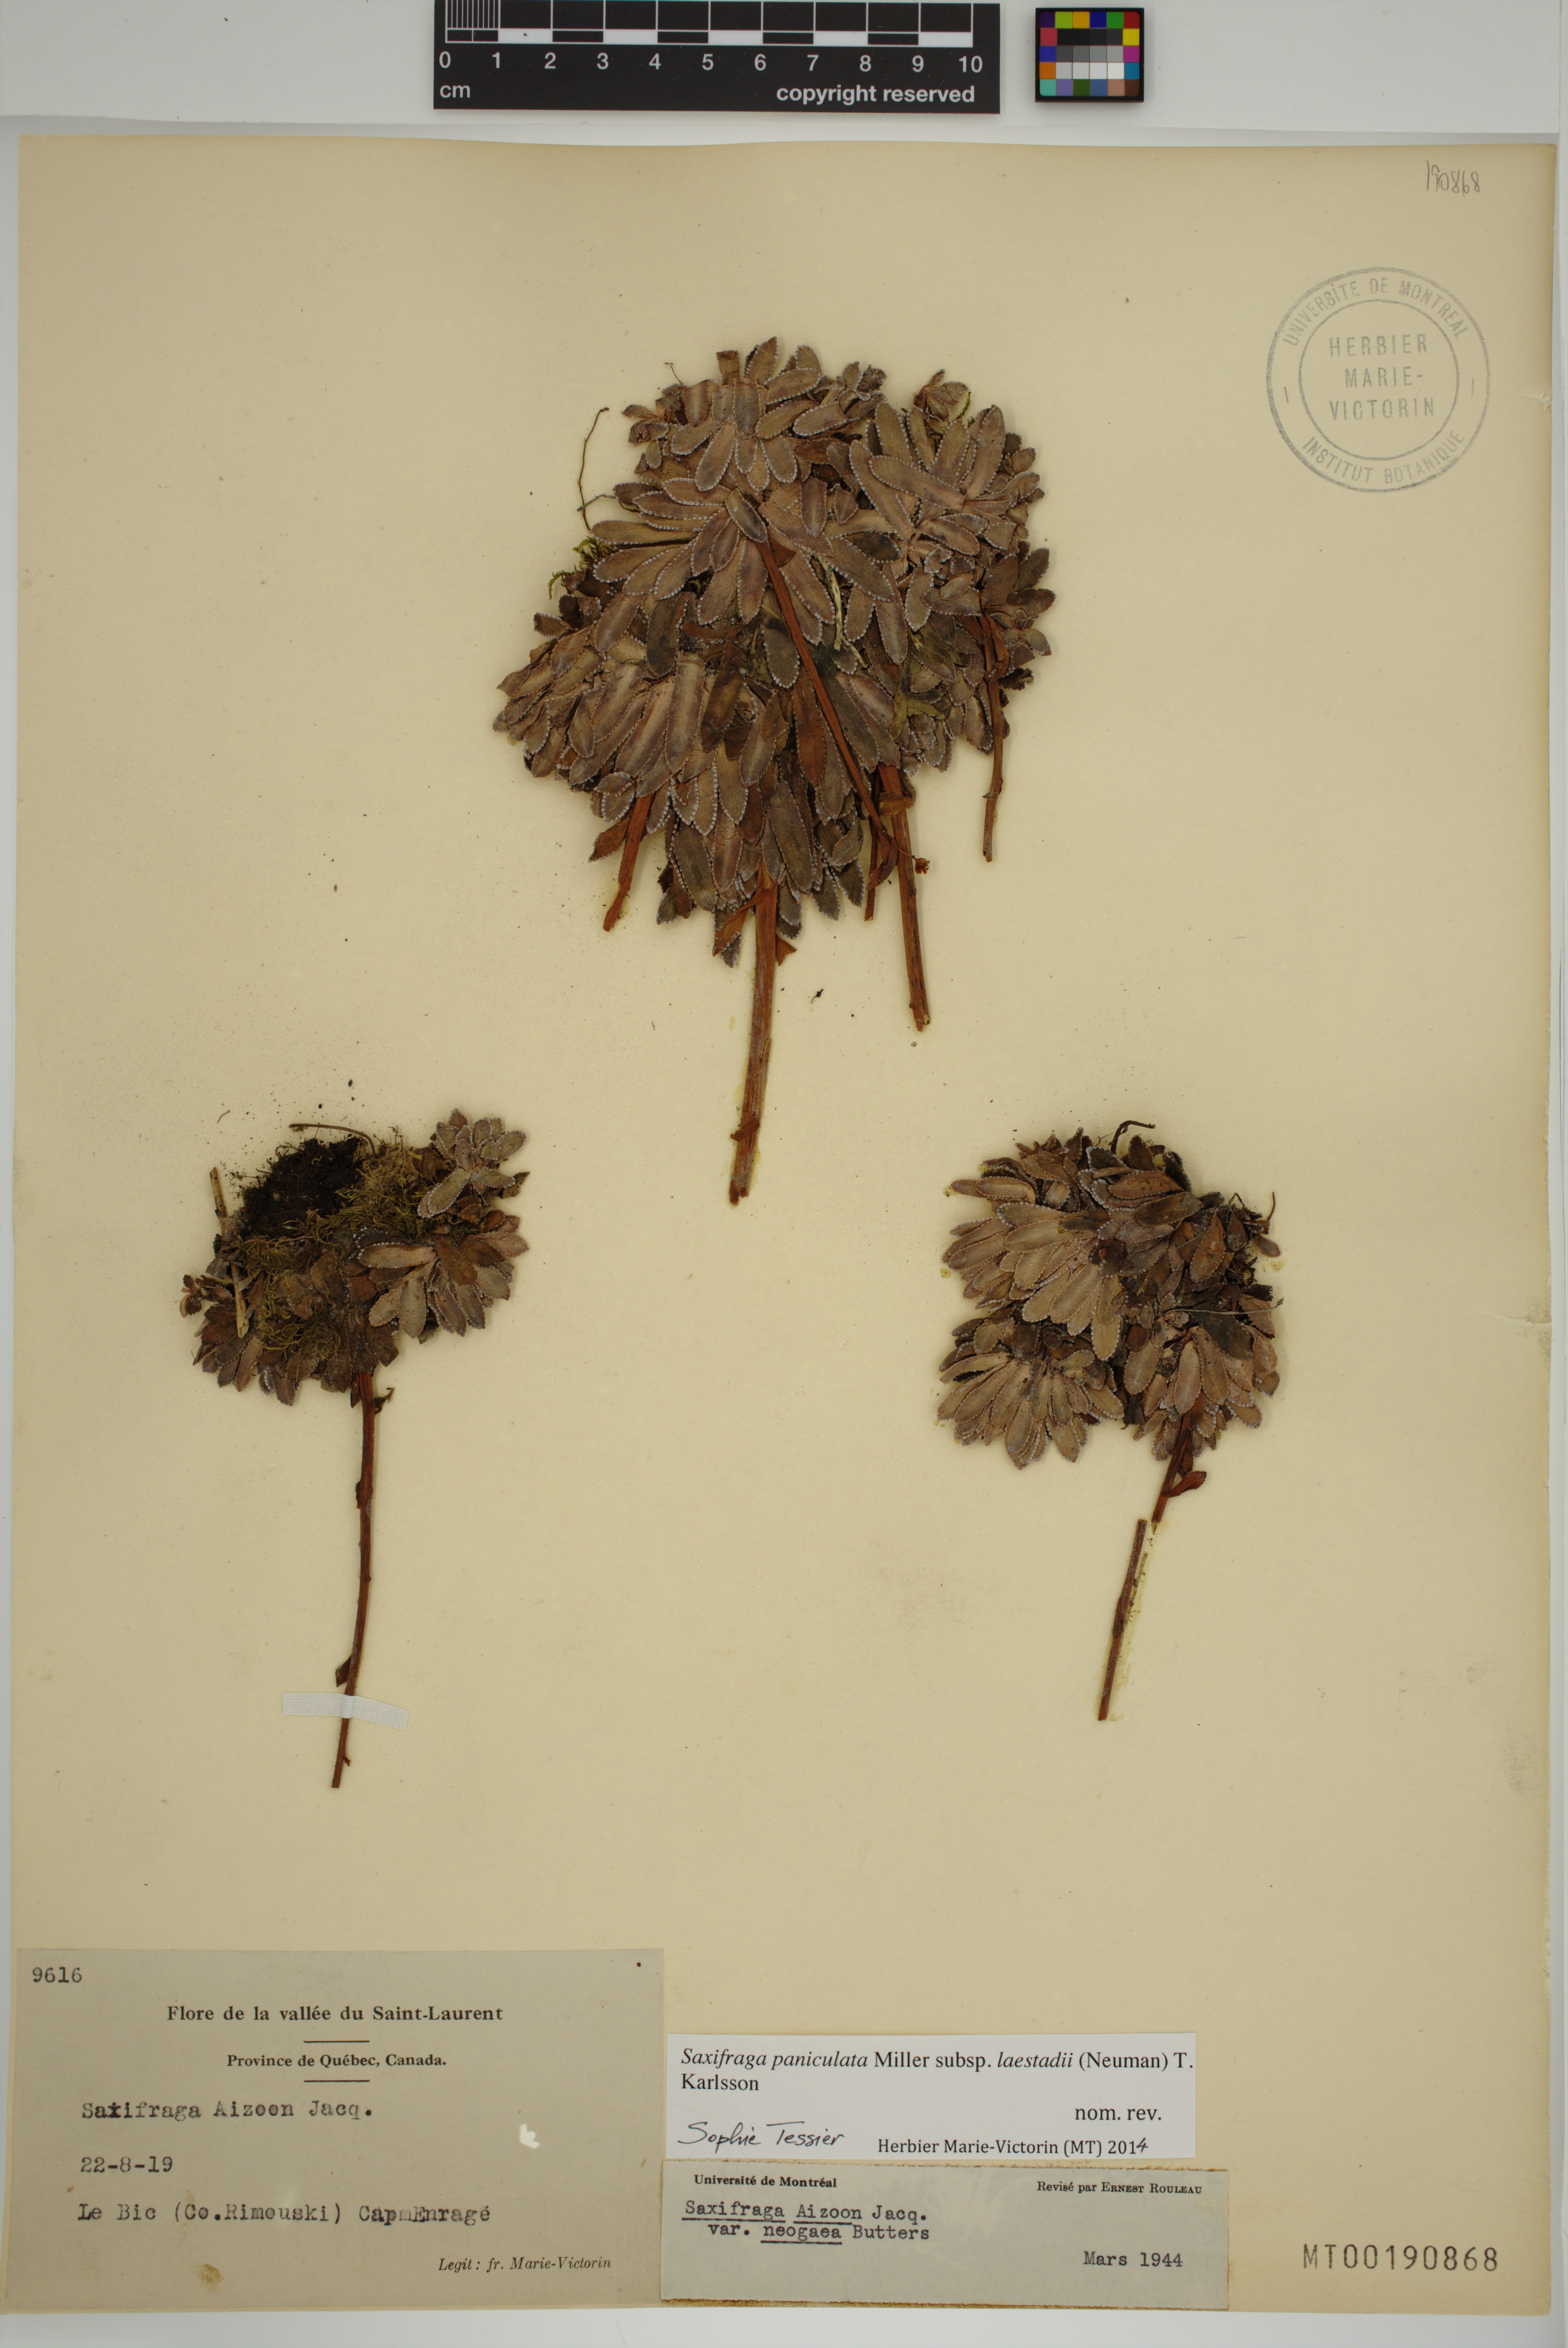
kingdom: Plantae
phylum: Tracheophyta
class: Magnoliopsida
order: Saxifragales
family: Saxifragaceae
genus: Saxifraga
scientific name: Saxifraga paniculata
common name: Livelong saxifrage
